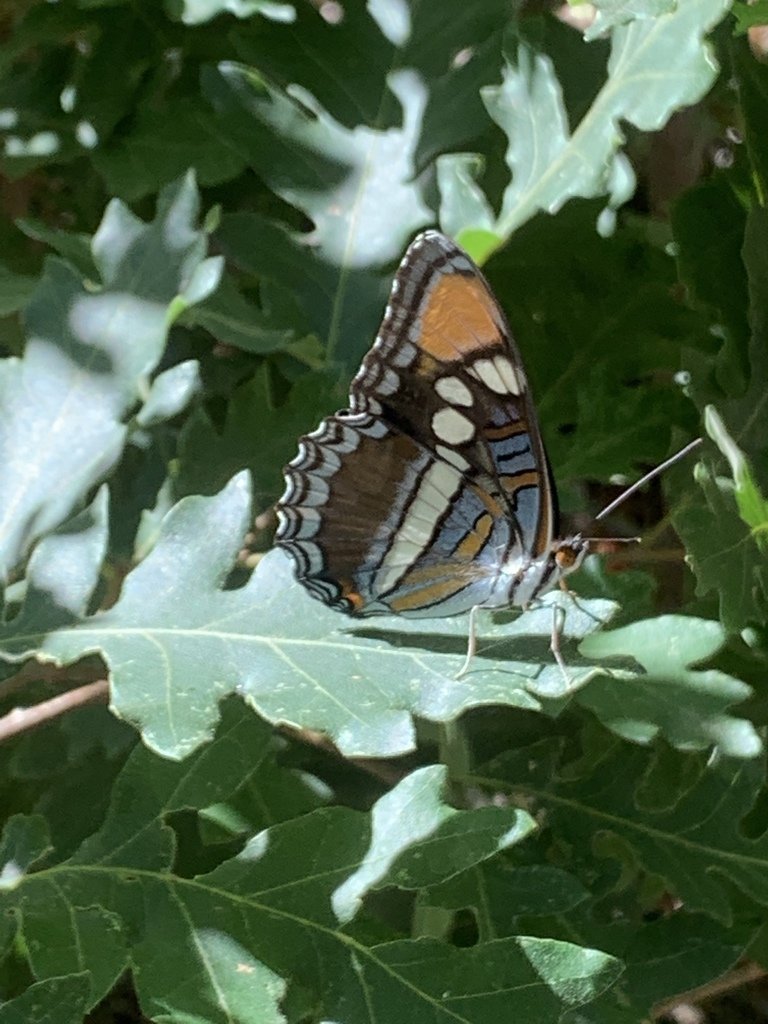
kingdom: Animalia
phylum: Arthropoda
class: Insecta
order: Lepidoptera
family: Nymphalidae
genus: Limenitis
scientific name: Limenitis bredowii
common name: Arizona Sister
